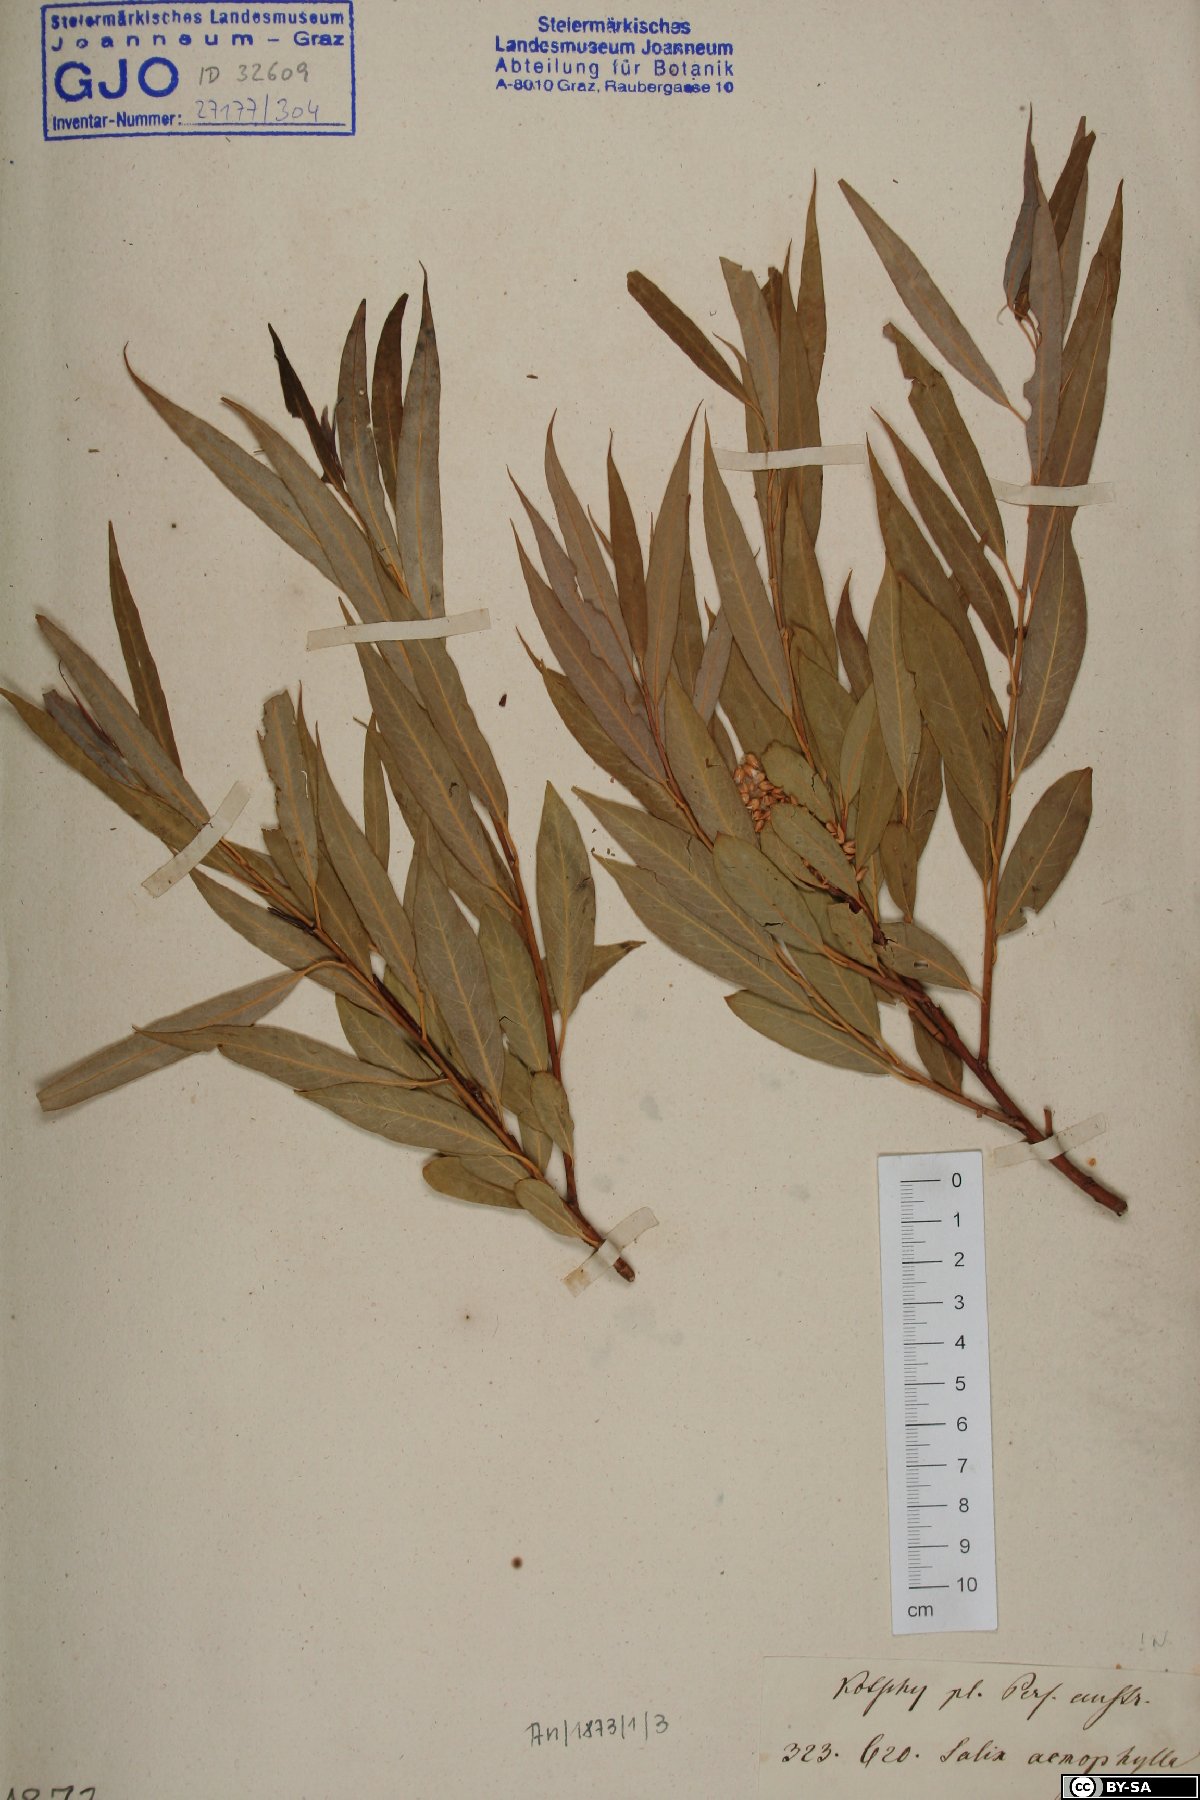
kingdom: Plantae
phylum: Tracheophyta
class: Magnoliopsida
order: Malpighiales
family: Salicaceae
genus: Salix
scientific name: Salix acmophylla
